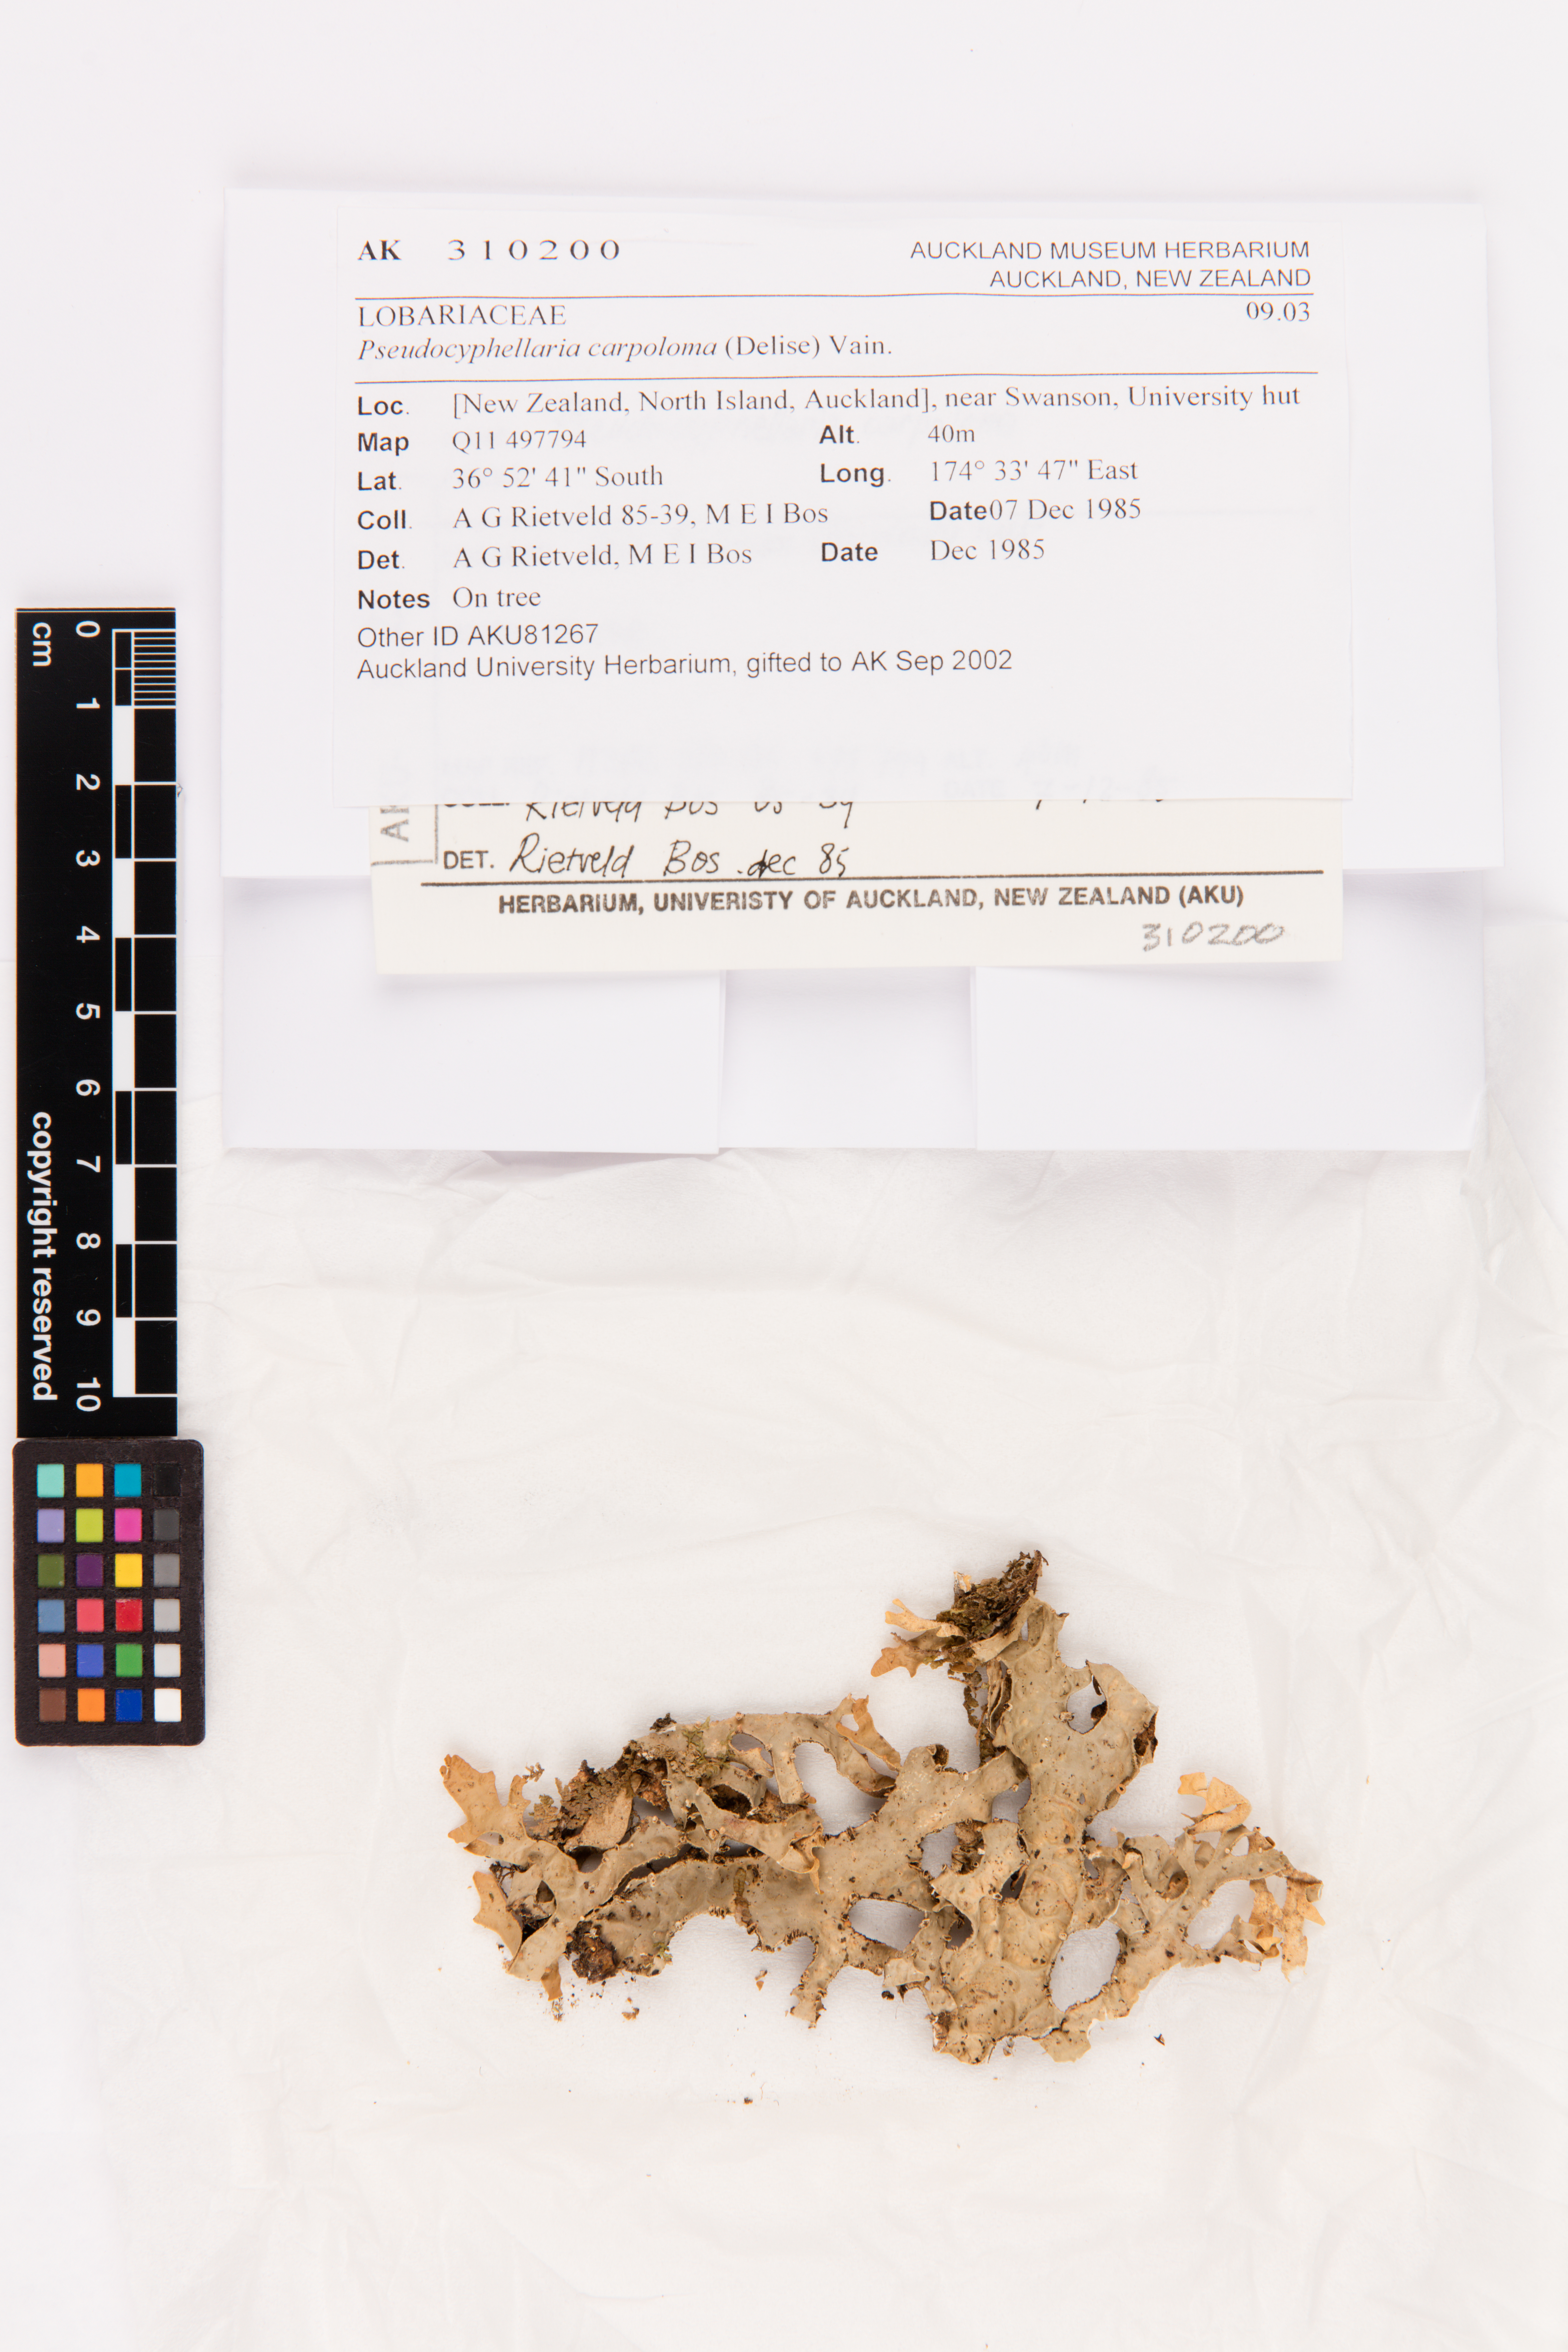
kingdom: Fungi
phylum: Ascomycota
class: Lecanoromycetes
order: Peltigerales
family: Lobariaceae
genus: Pseudocyphellaria
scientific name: Pseudocyphellaria carpoloma
